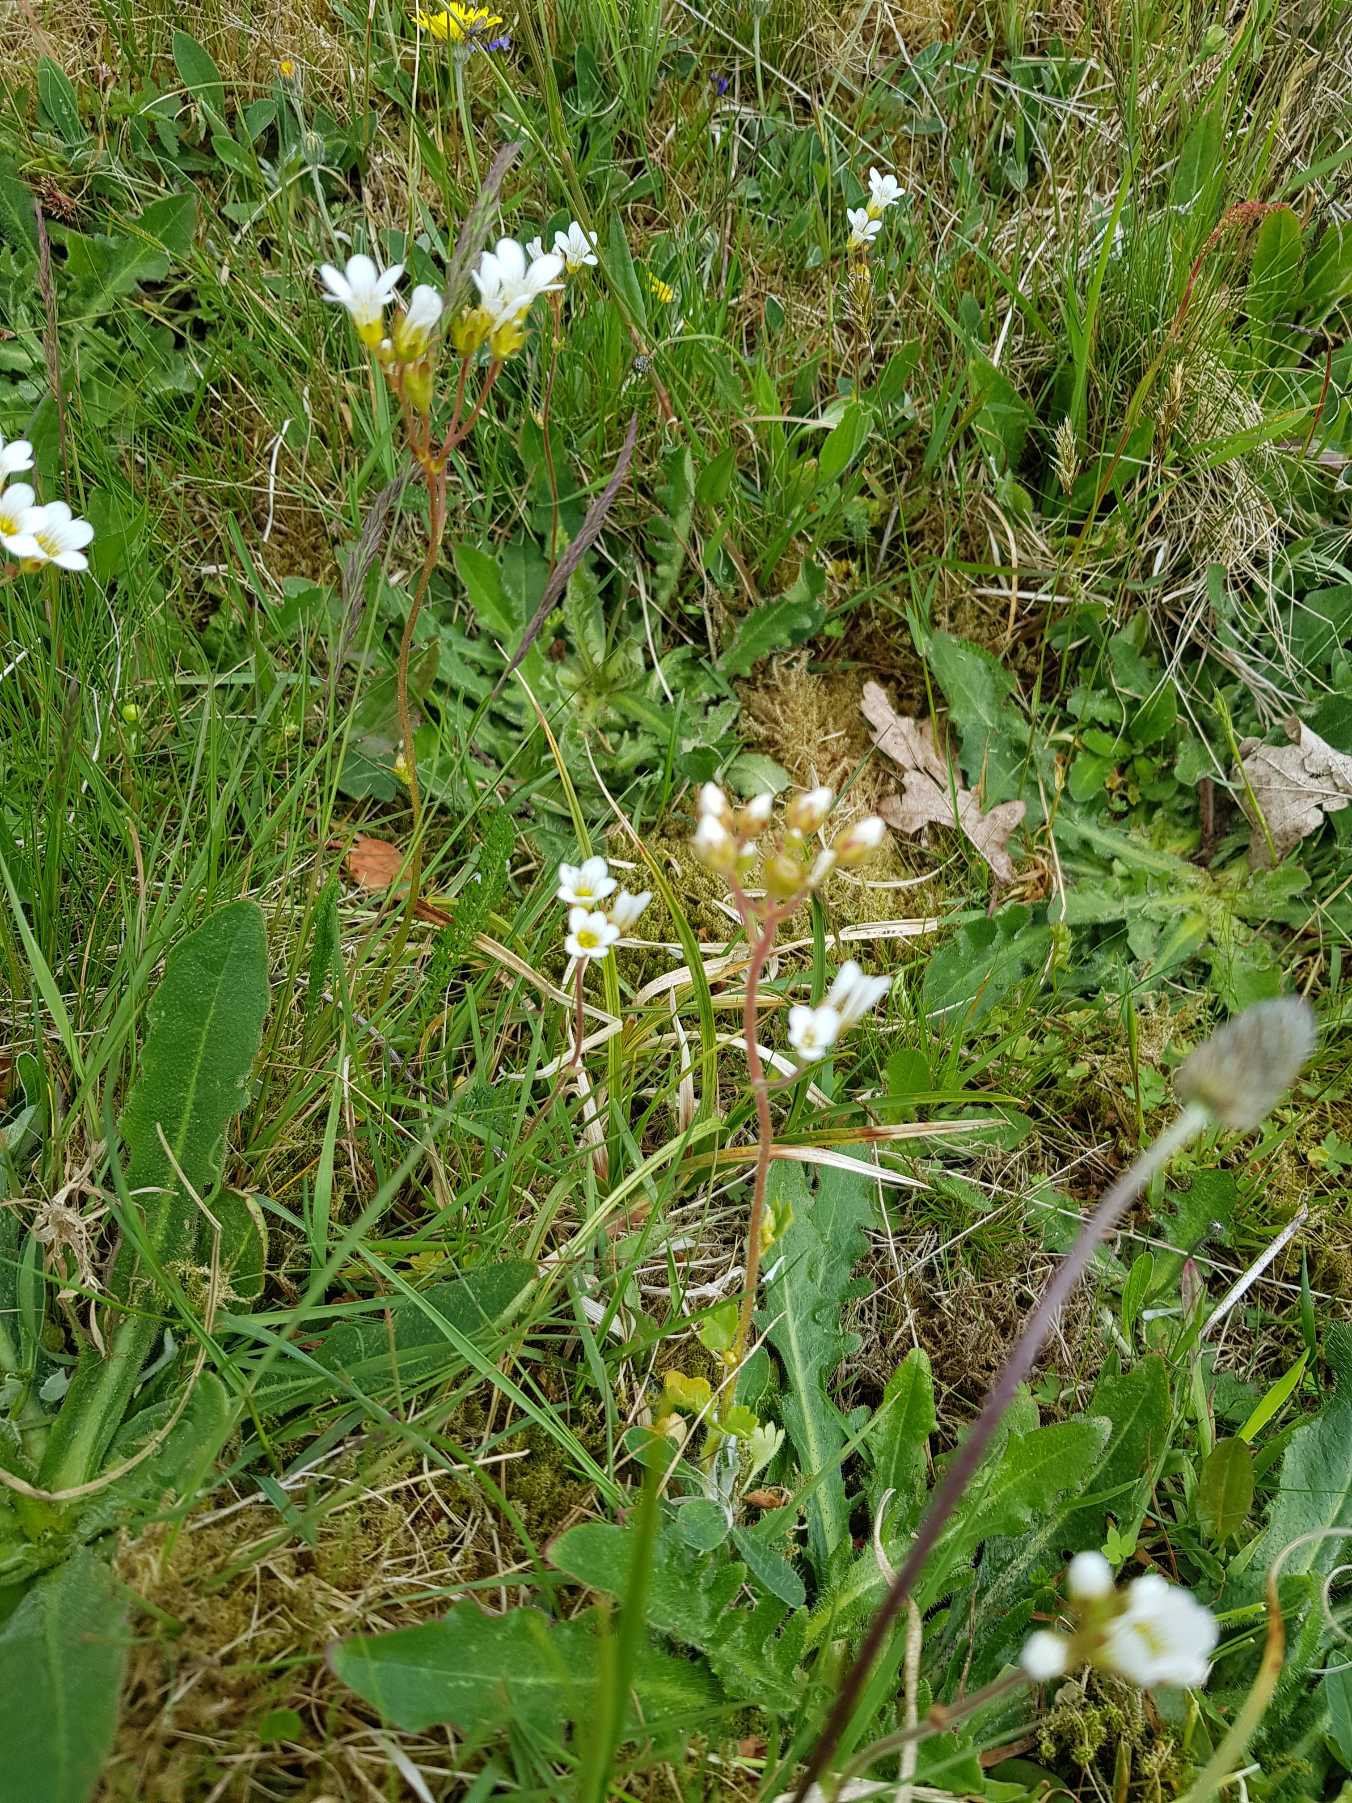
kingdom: Plantae
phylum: Tracheophyta
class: Magnoliopsida
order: Saxifragales
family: Saxifragaceae
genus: Saxifraga
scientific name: Saxifraga granulata
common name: Kornet stenbræk
